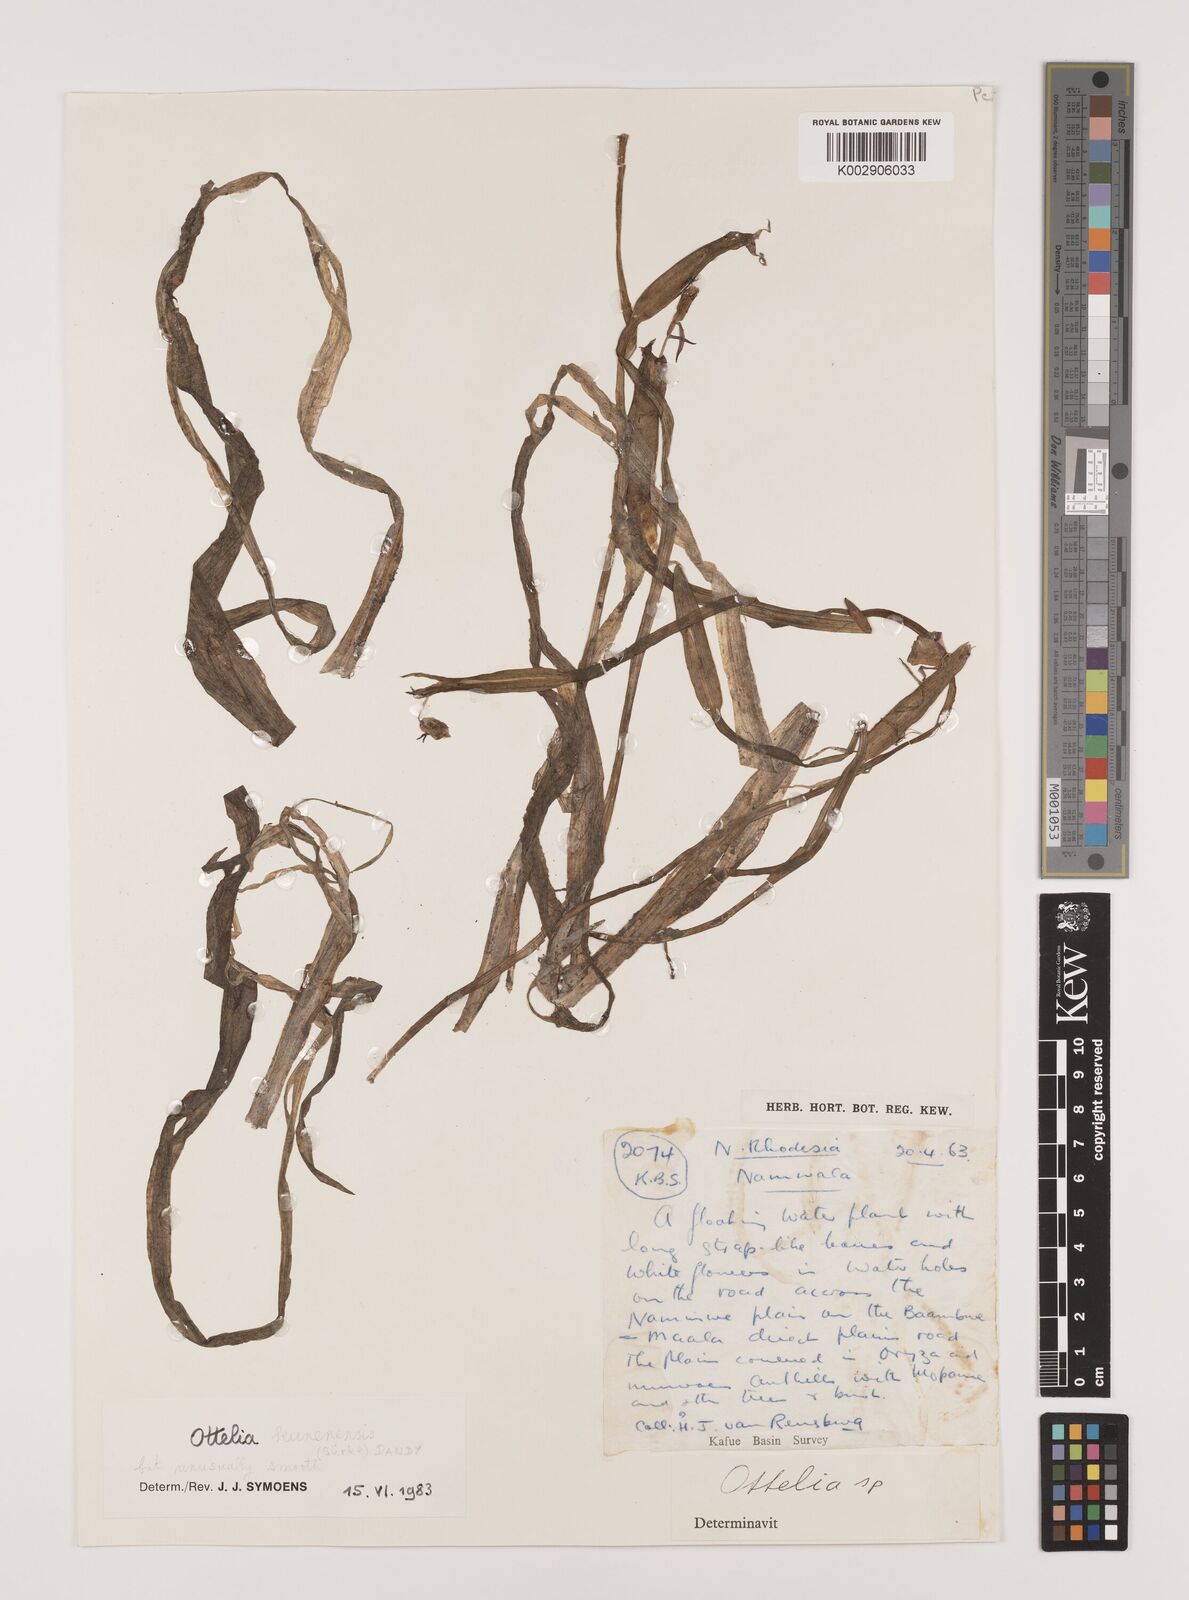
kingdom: Plantae
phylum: Tracheophyta
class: Liliopsida
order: Alismatales
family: Hydrocharitaceae
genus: Ottelia
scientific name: Ottelia kunenensis
